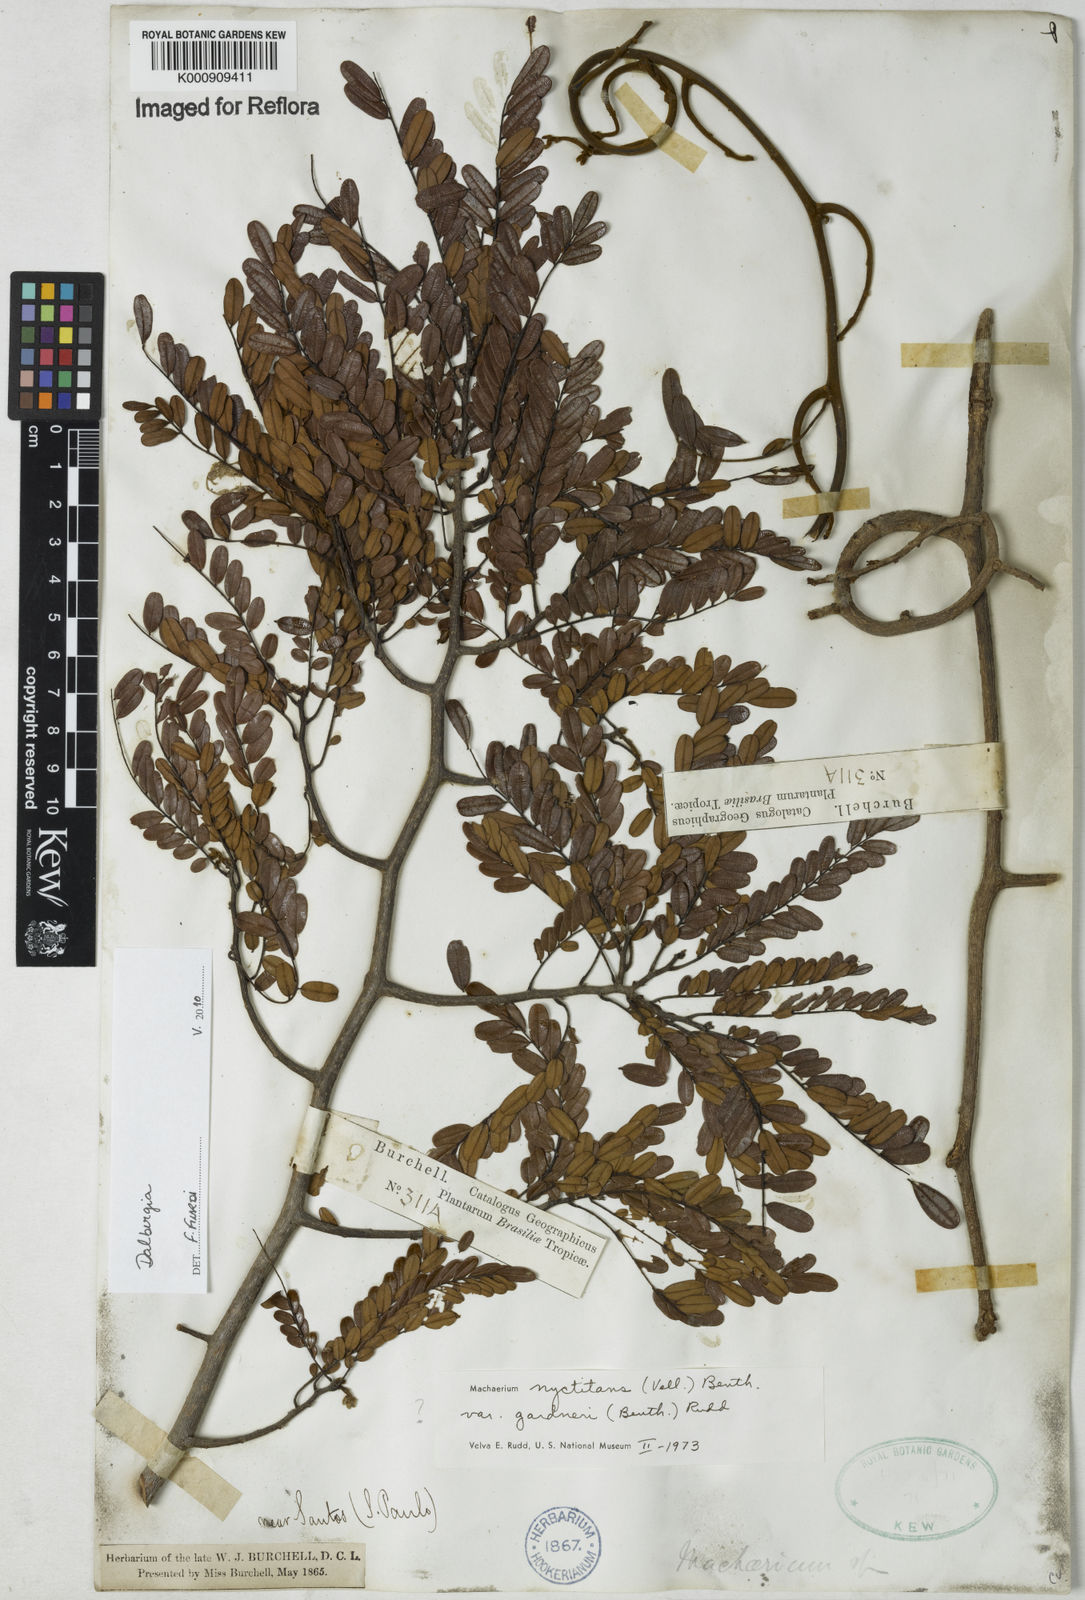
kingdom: Plantae
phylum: Tracheophyta
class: Magnoliopsida
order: Fabales
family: Fabaceae
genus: Dalbergia
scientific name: Dalbergia
